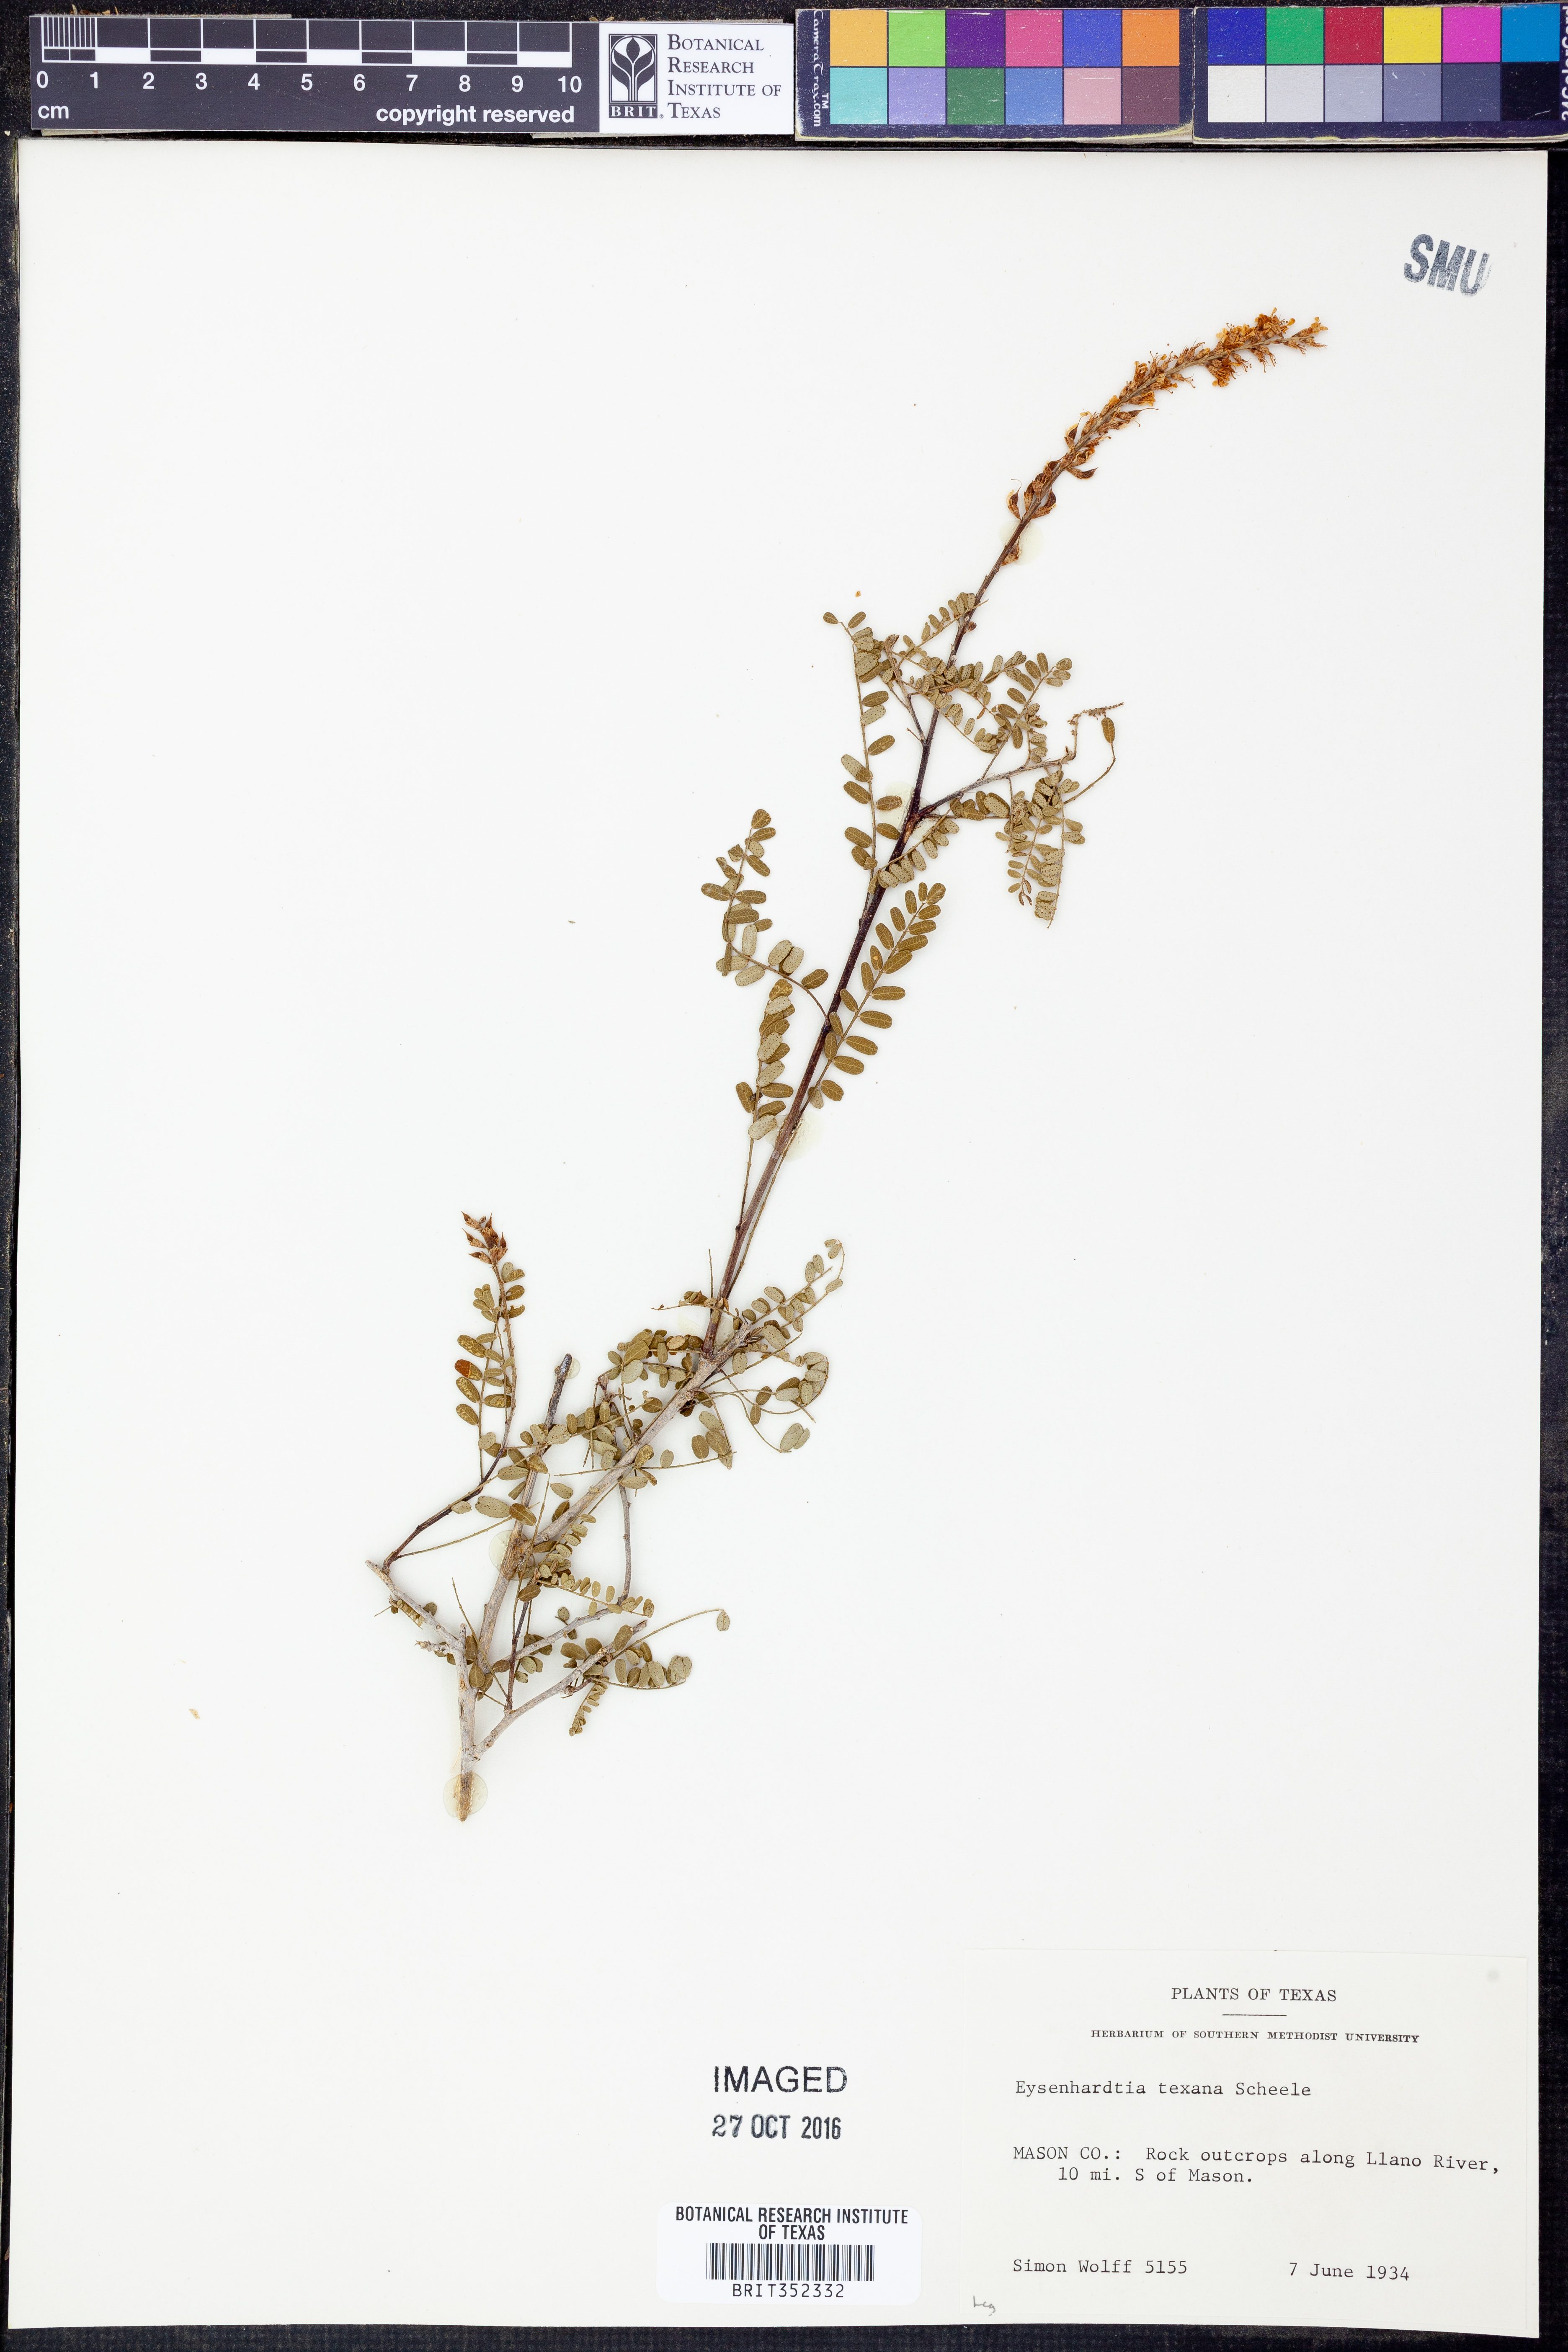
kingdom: Plantae
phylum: Tracheophyta
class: Magnoliopsida
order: Fabales
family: Fabaceae
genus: Eysenhardtia
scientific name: Eysenhardtia texana
